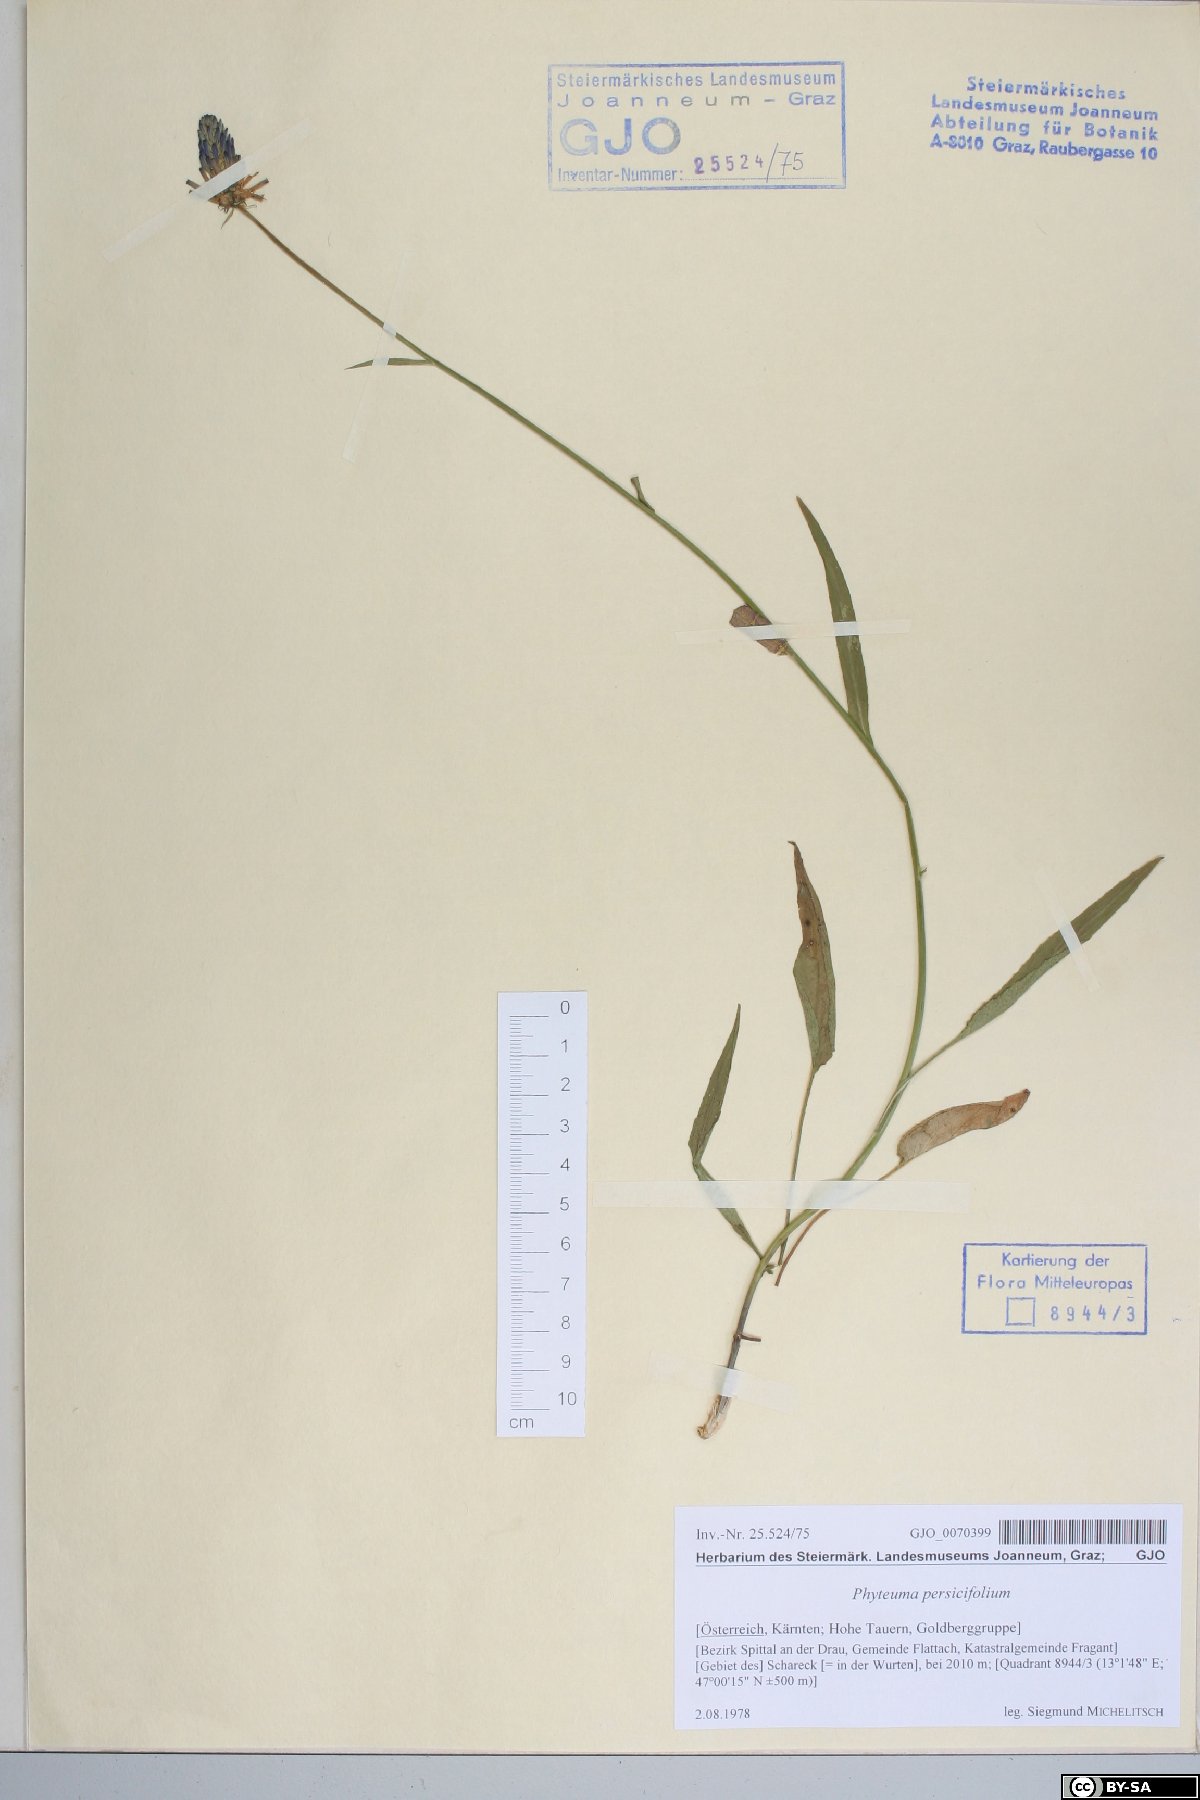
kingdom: Plantae
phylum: Tracheophyta
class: Magnoliopsida
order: Asterales
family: Campanulaceae
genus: Phyteuma
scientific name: Phyteuma persicifolium
